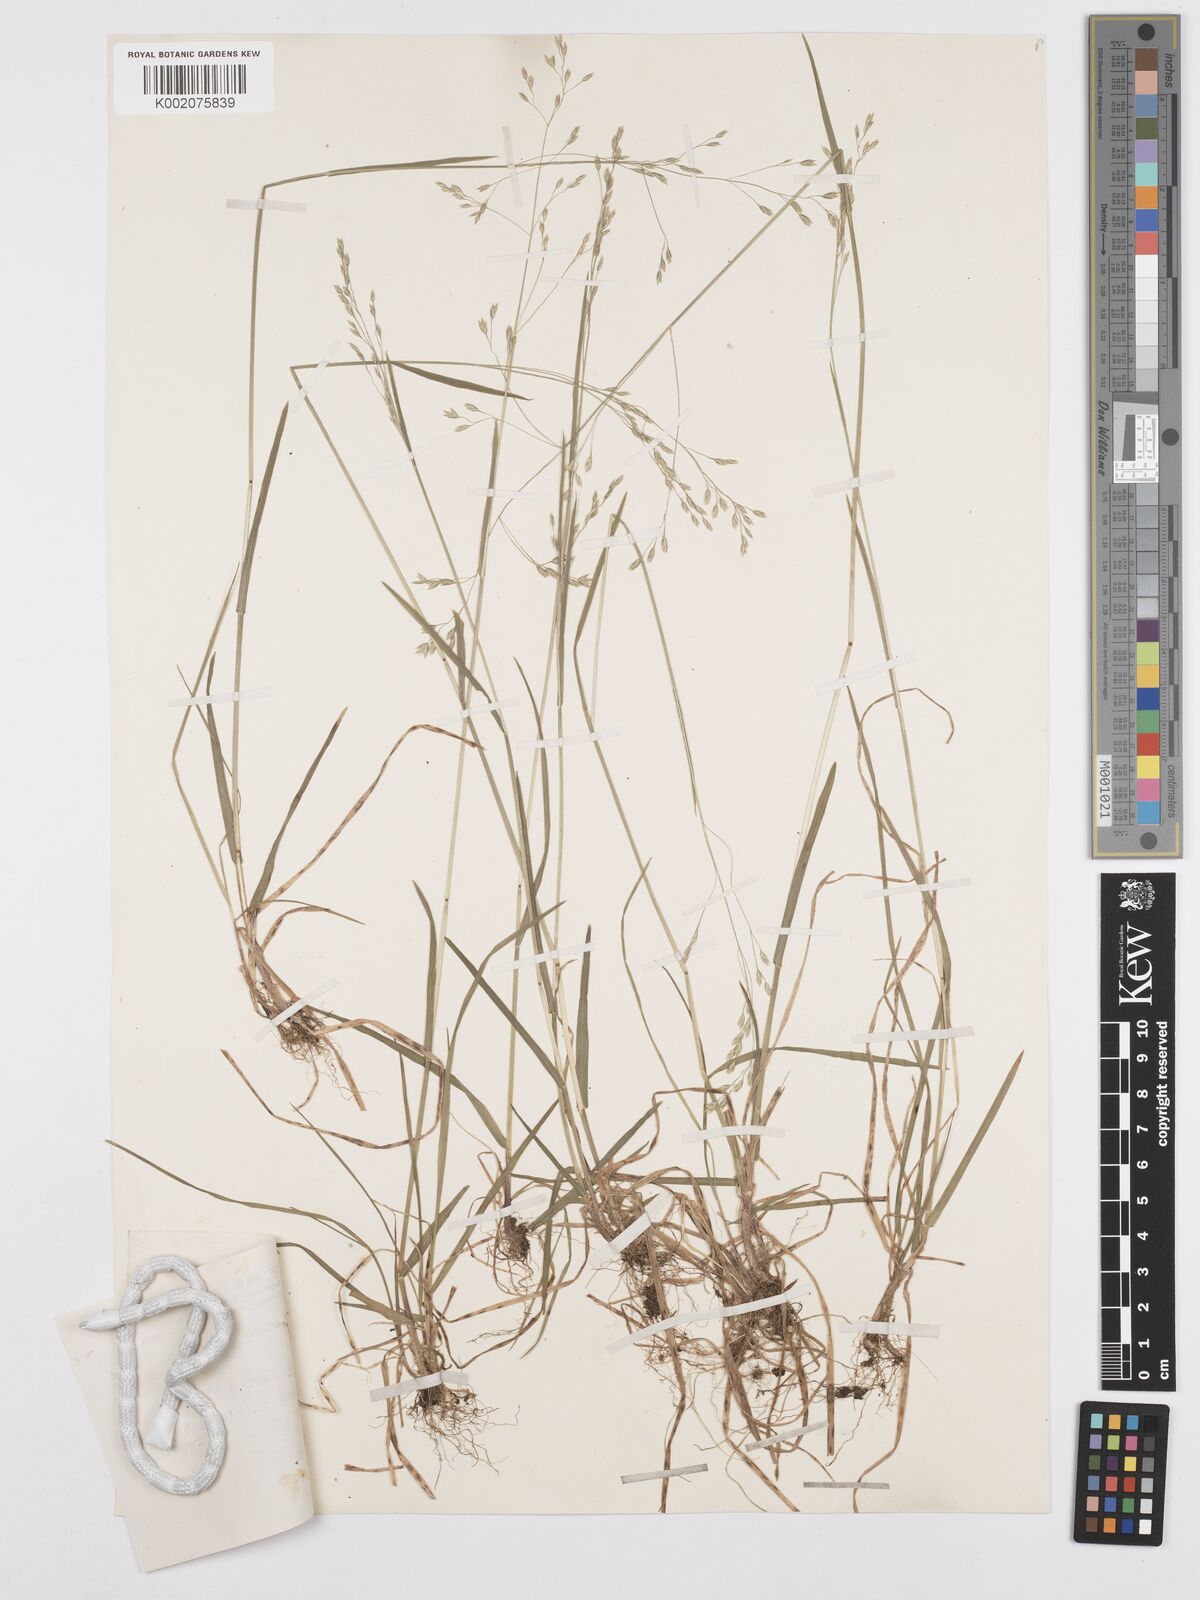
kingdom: Plantae
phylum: Tracheophyta
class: Liliopsida
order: Poales
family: Poaceae
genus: Poa
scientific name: Poa saltuensis
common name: Bushy pasture speargrass
